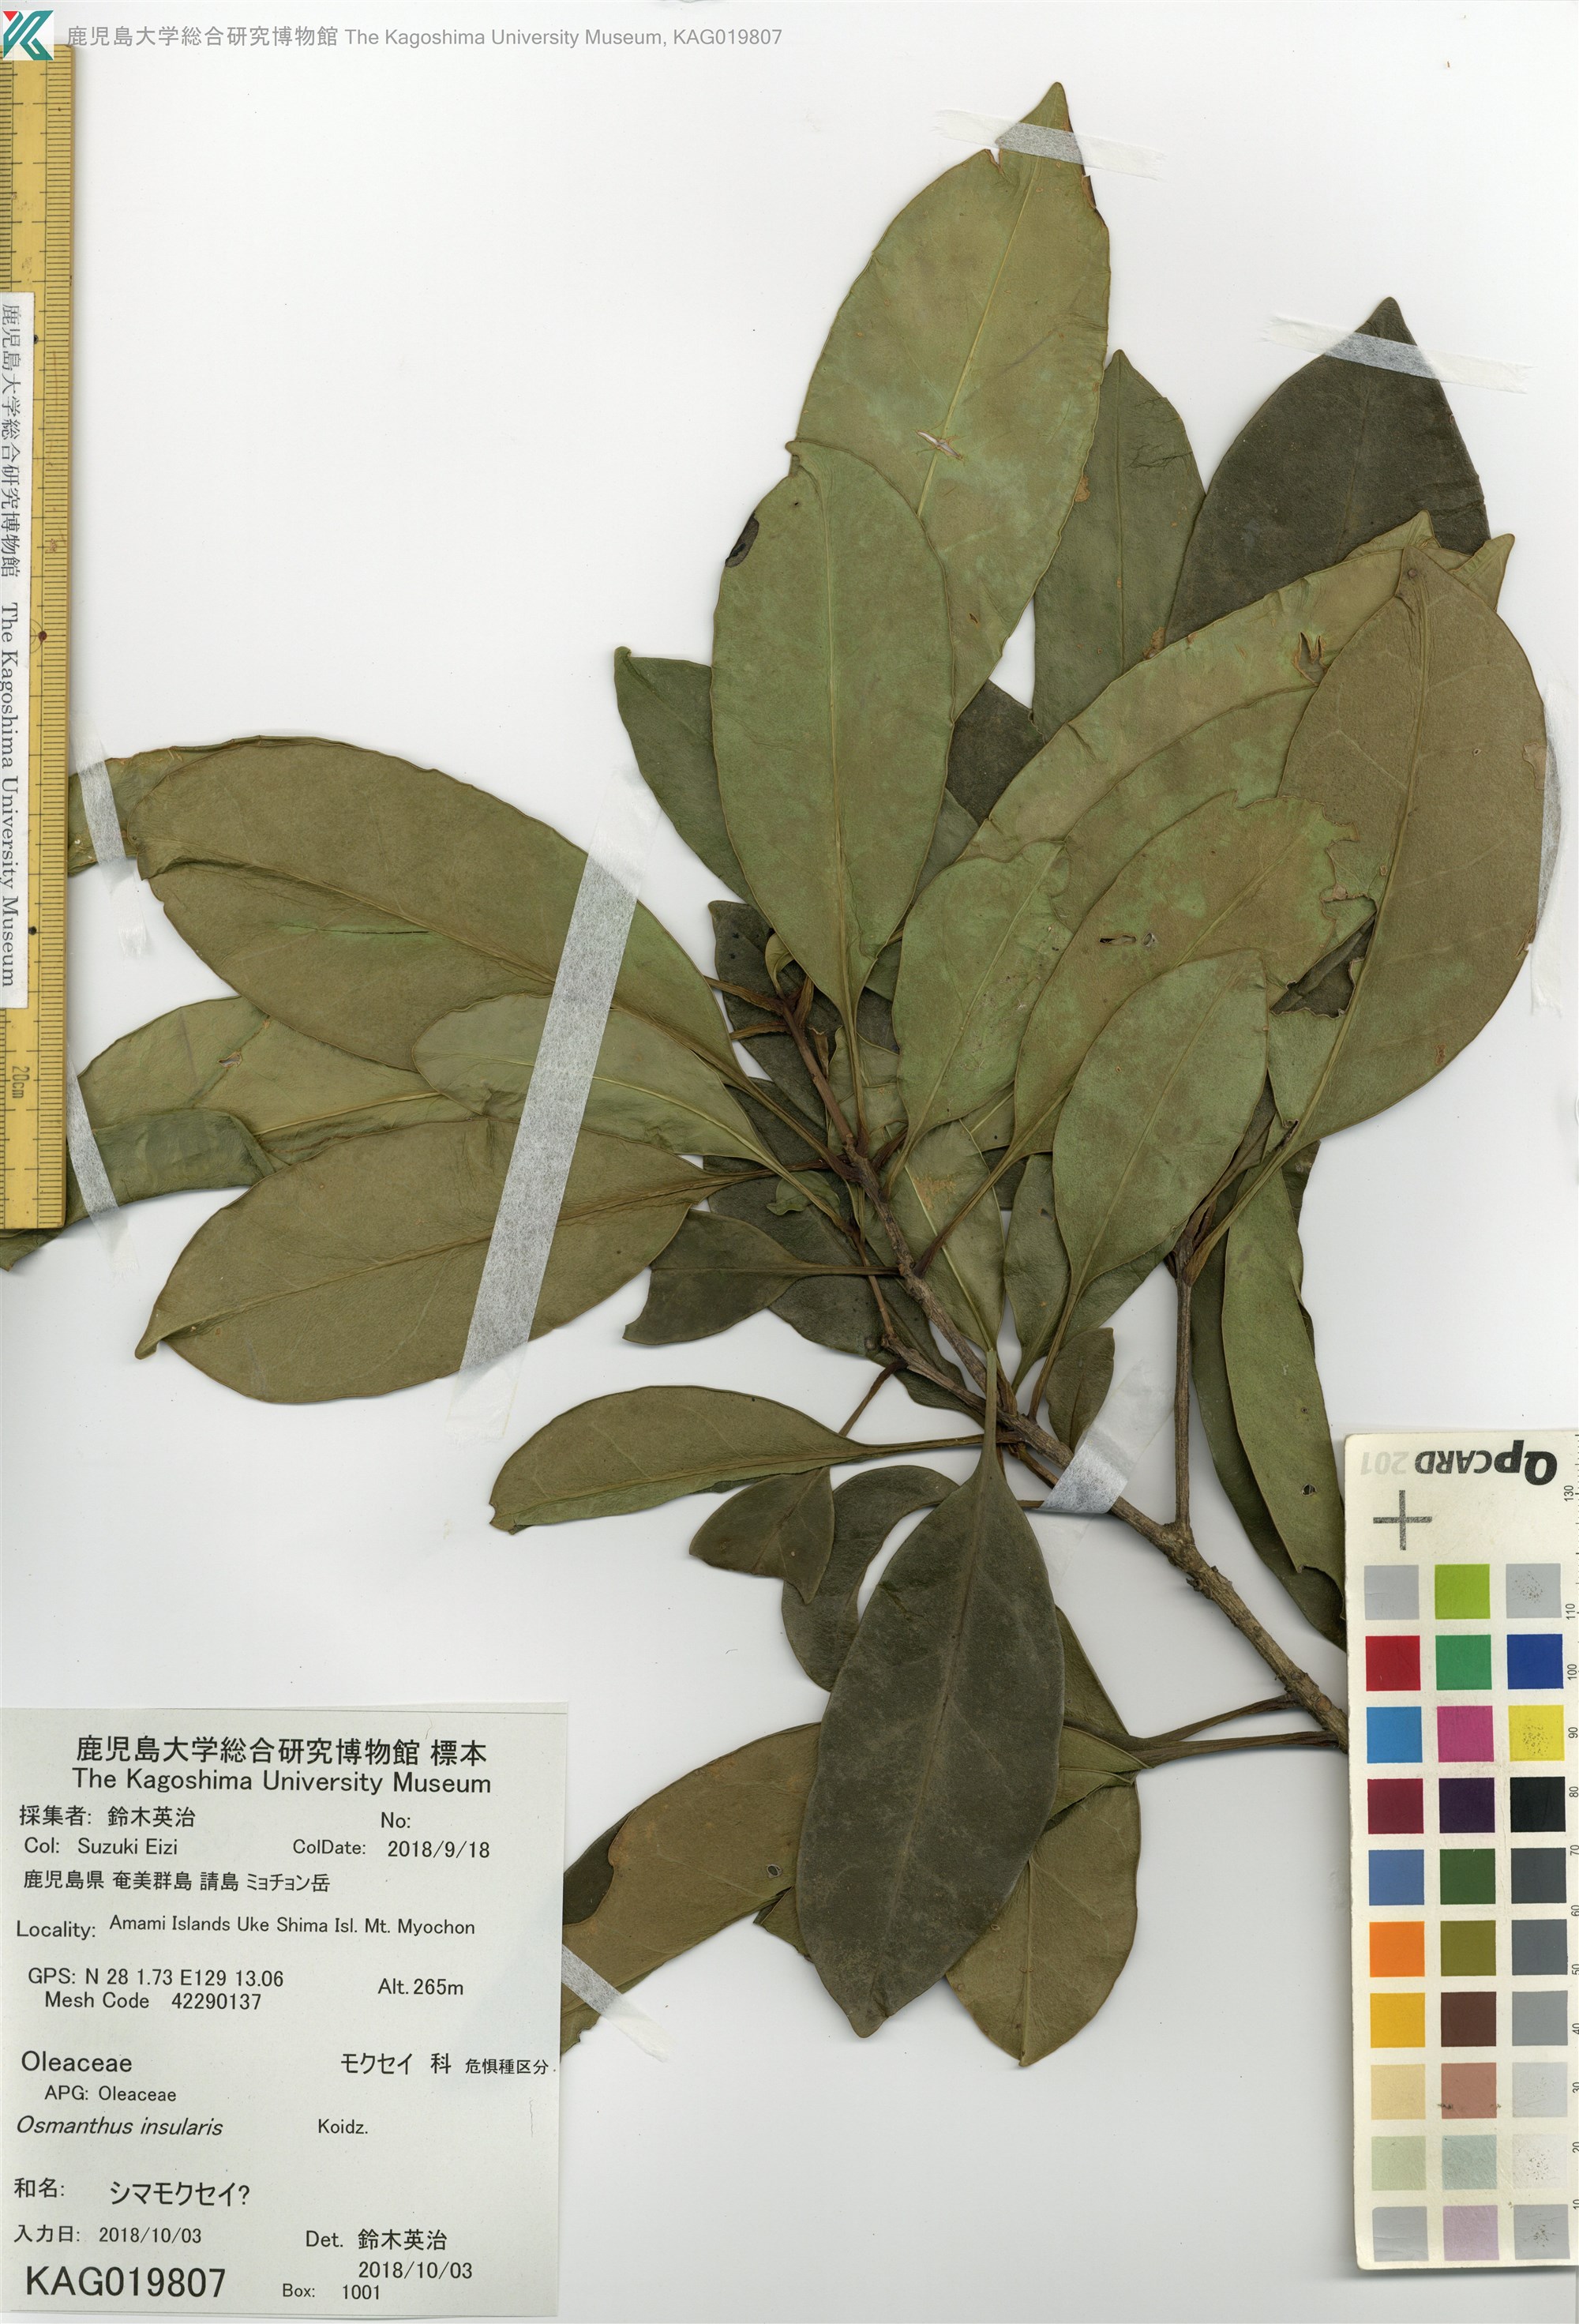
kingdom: Plantae
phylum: Tracheophyta
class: Magnoliopsida
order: Lamiales
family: Oleaceae
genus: Chengiodendron
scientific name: Chengiodendron marginatum
